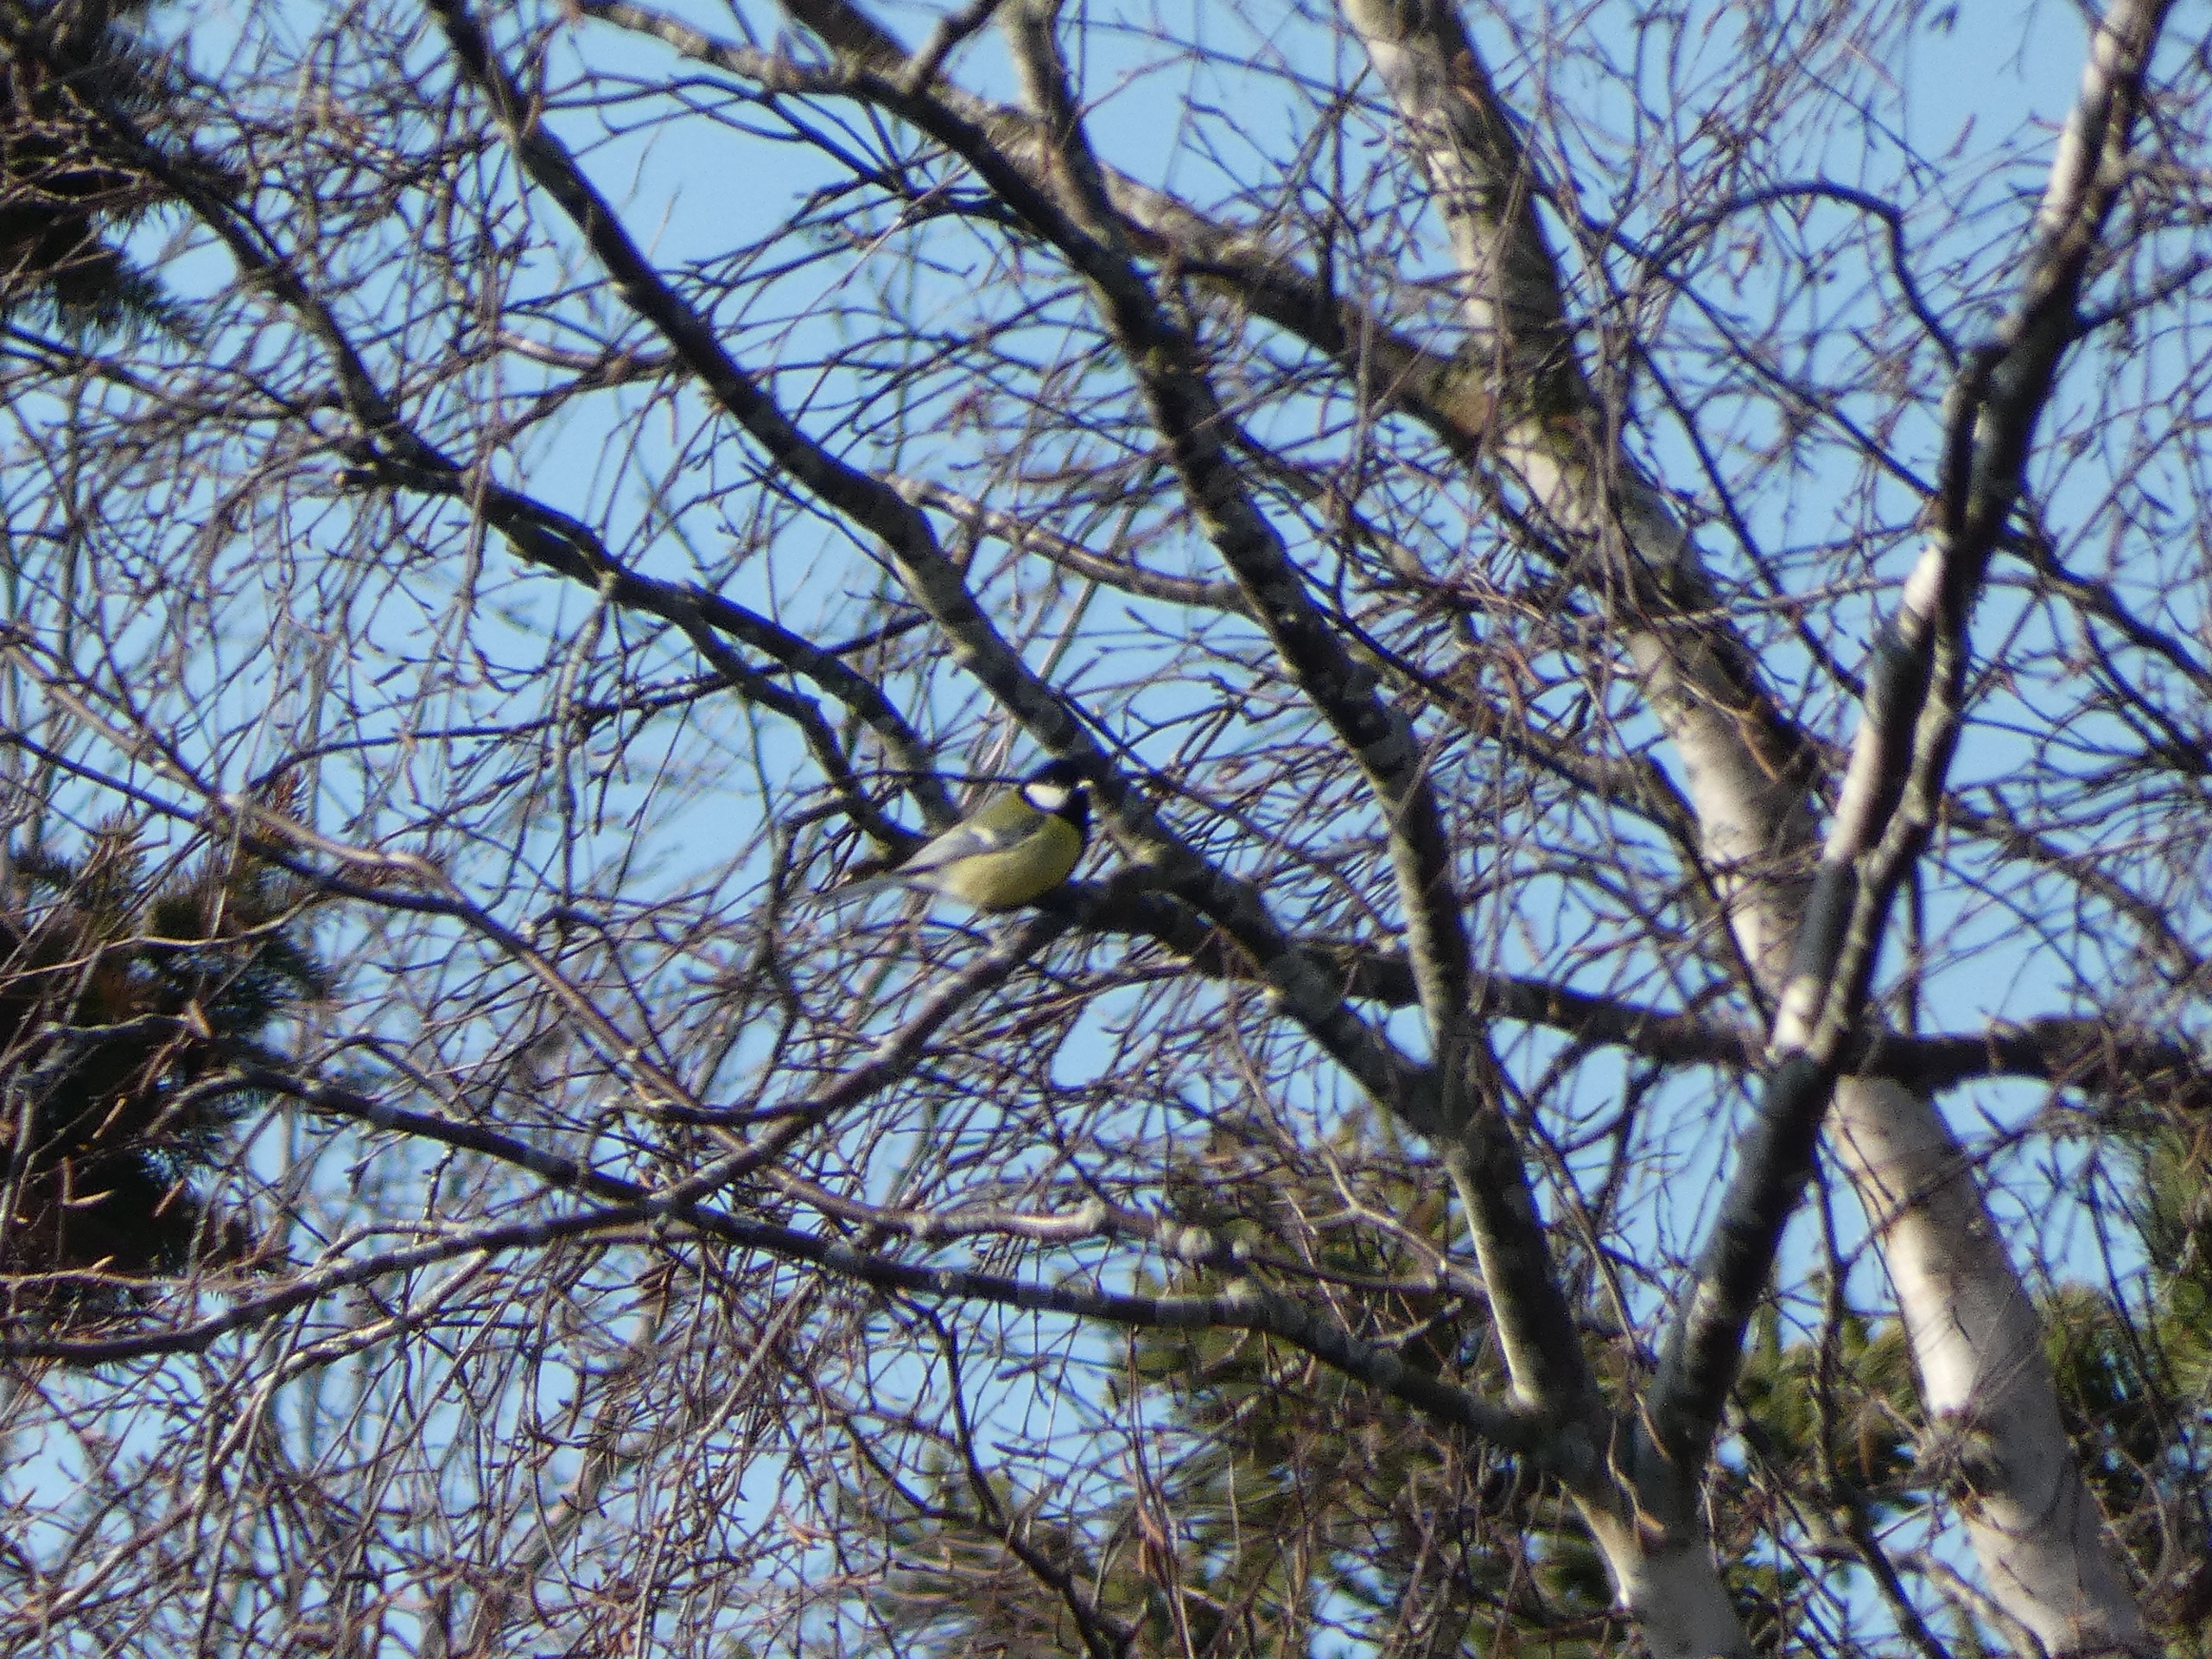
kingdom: Animalia
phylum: Chordata
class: Aves
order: Passeriformes
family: Paridae
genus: Parus
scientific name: Parus major
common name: Musvit
